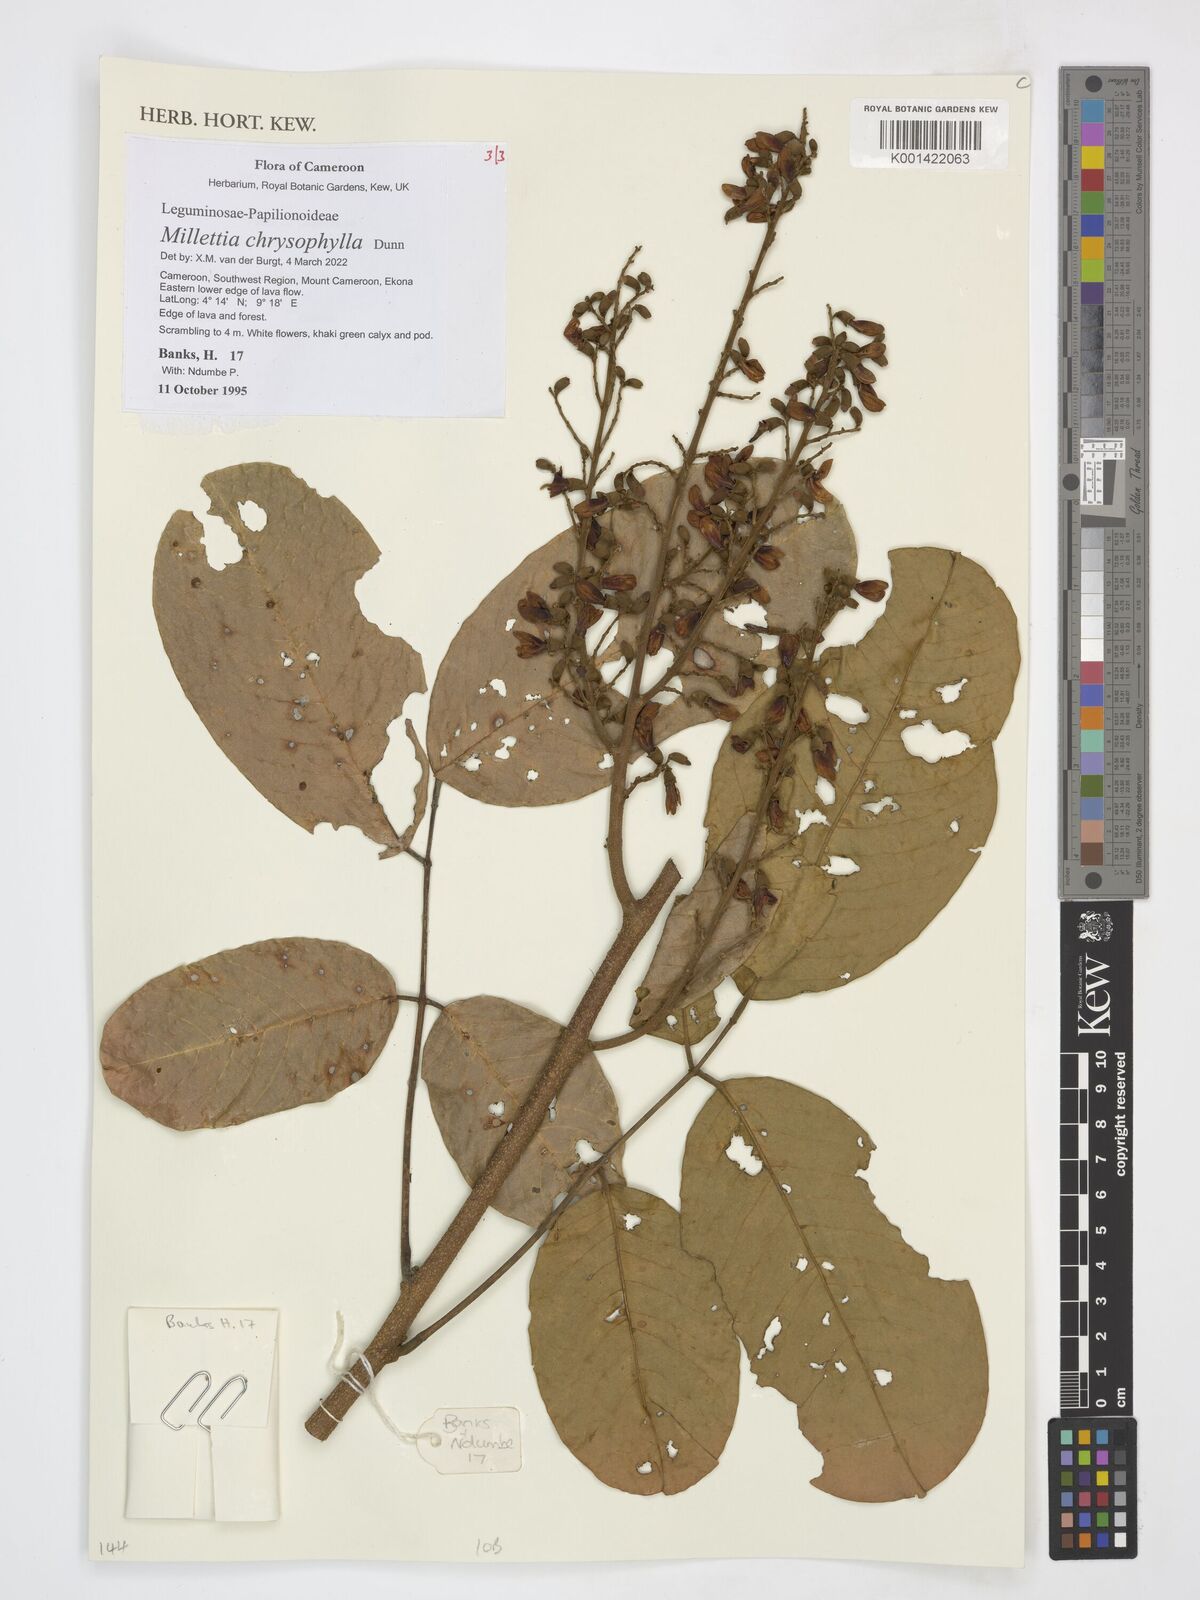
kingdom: Plantae
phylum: Tracheophyta
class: Magnoliopsida
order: Fabales
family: Fabaceae
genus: Millettia
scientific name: Millettia chrysophylla
